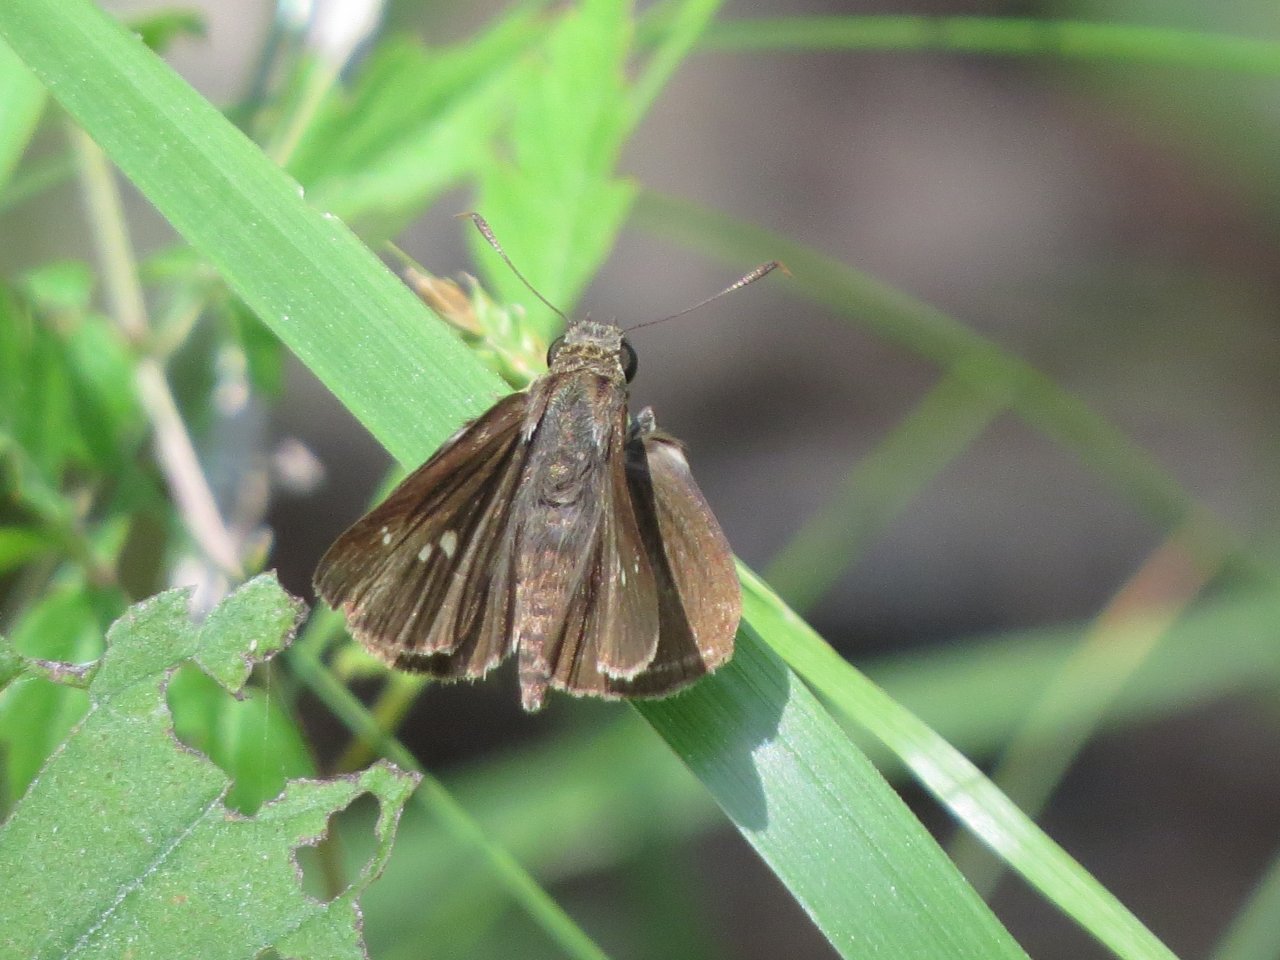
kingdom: Animalia
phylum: Arthropoda
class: Insecta
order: Lepidoptera
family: Hesperiidae
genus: Vernia
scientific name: Vernia verna
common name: Little Glassywing
